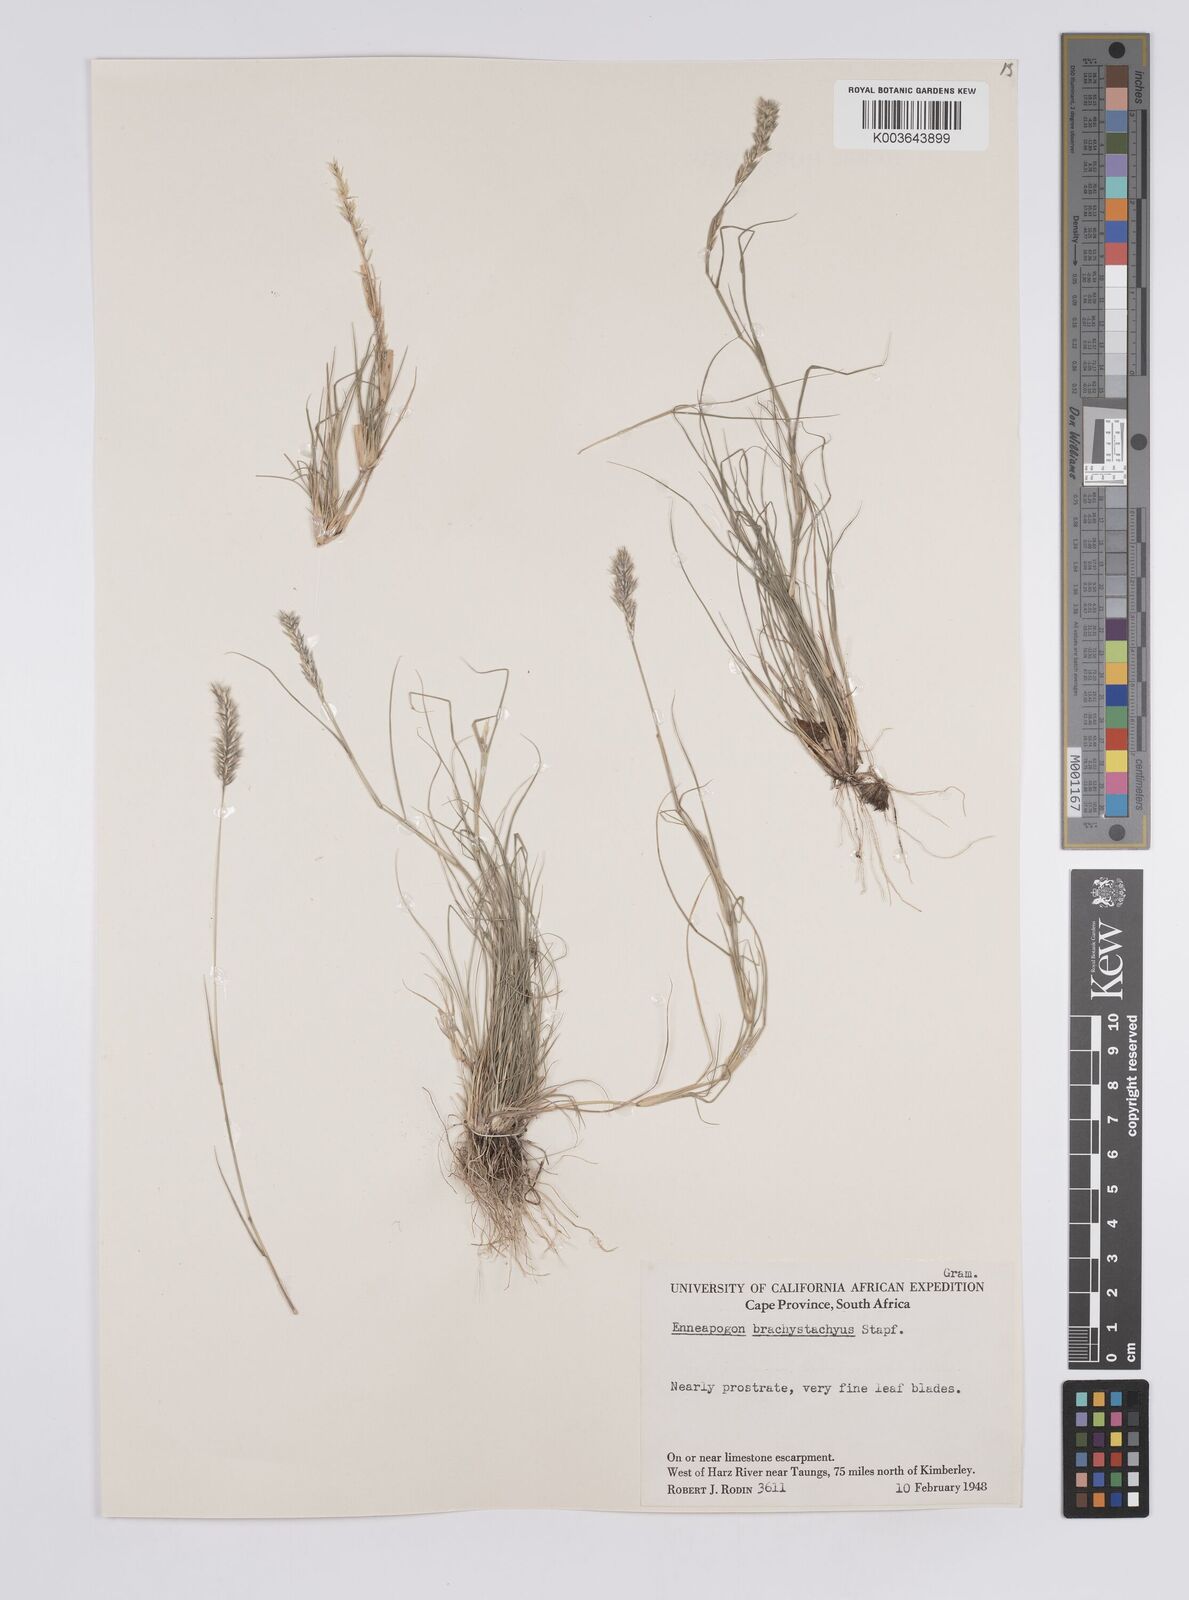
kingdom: Plantae
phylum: Tracheophyta
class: Liliopsida
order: Poales
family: Poaceae
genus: Enneapogon
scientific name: Enneapogon desvauxii
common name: Feather pappus grass
